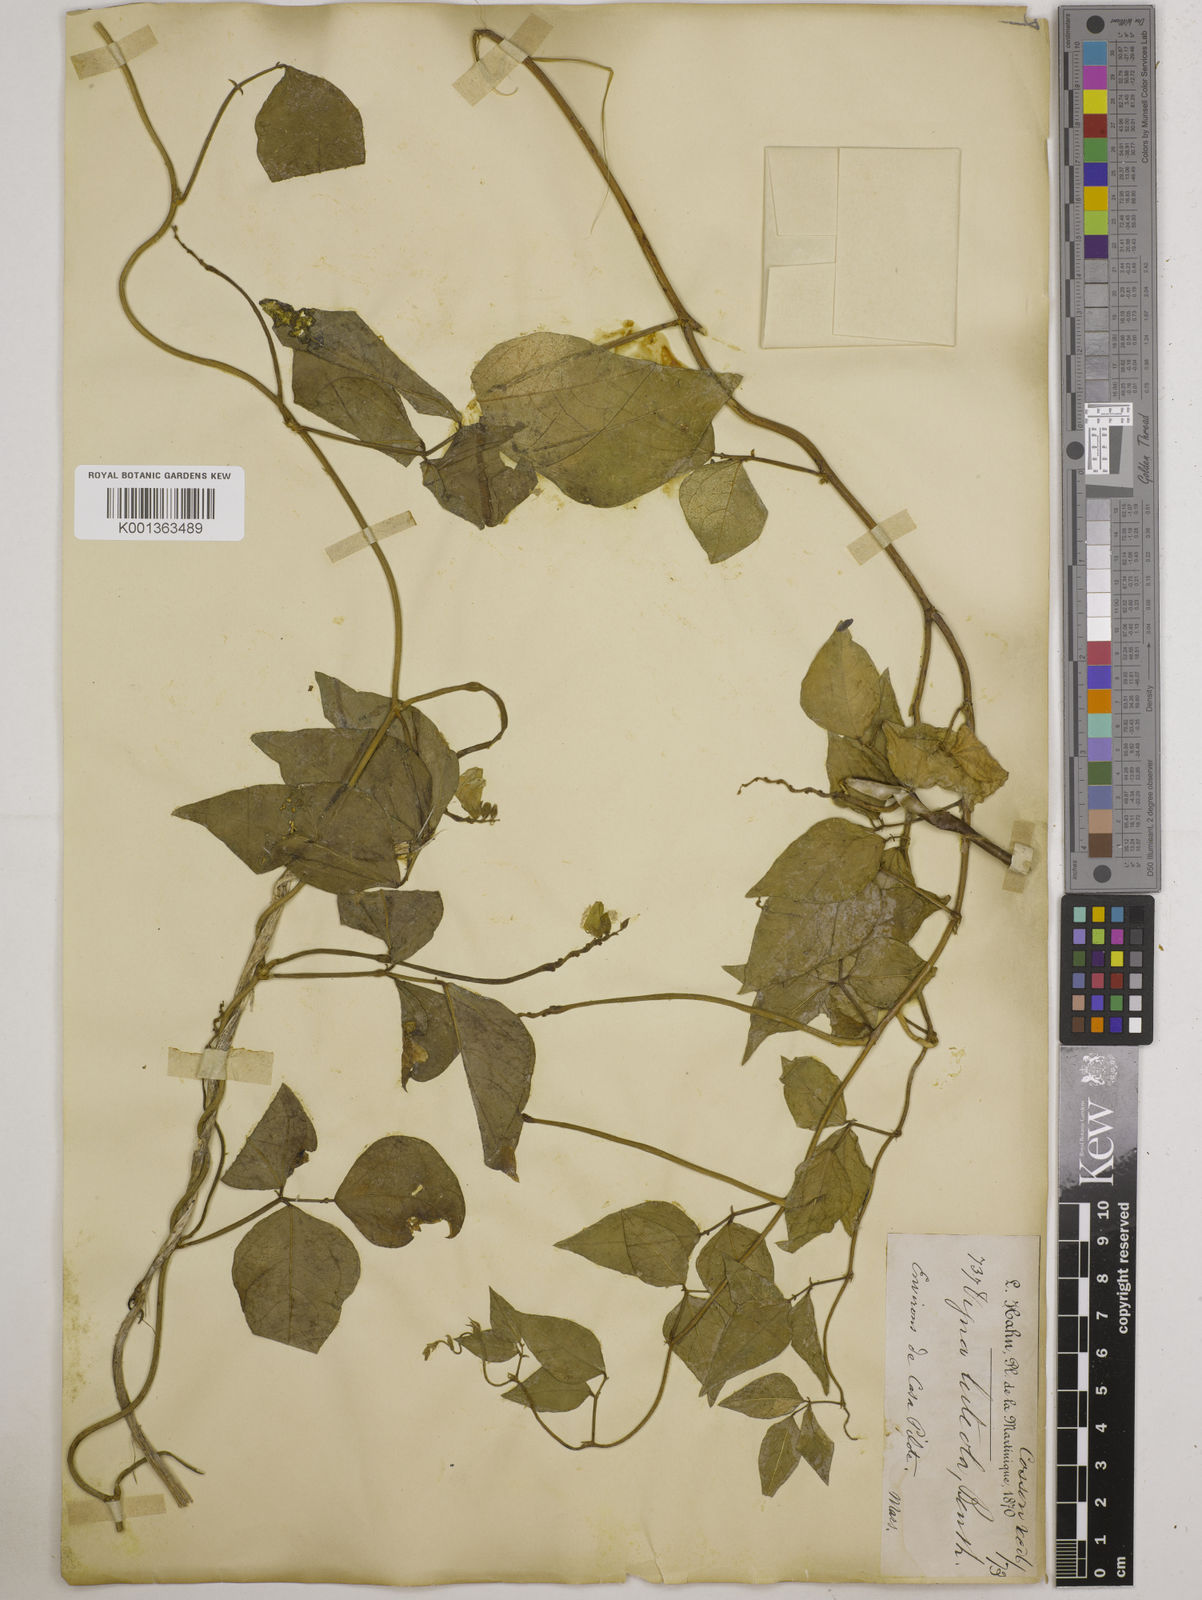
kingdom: Plantae
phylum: Tracheophyta
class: Magnoliopsida
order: Fabales
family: Fabaceae
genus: Vigna
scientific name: Vigna luteola
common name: Hairypod cowpea
